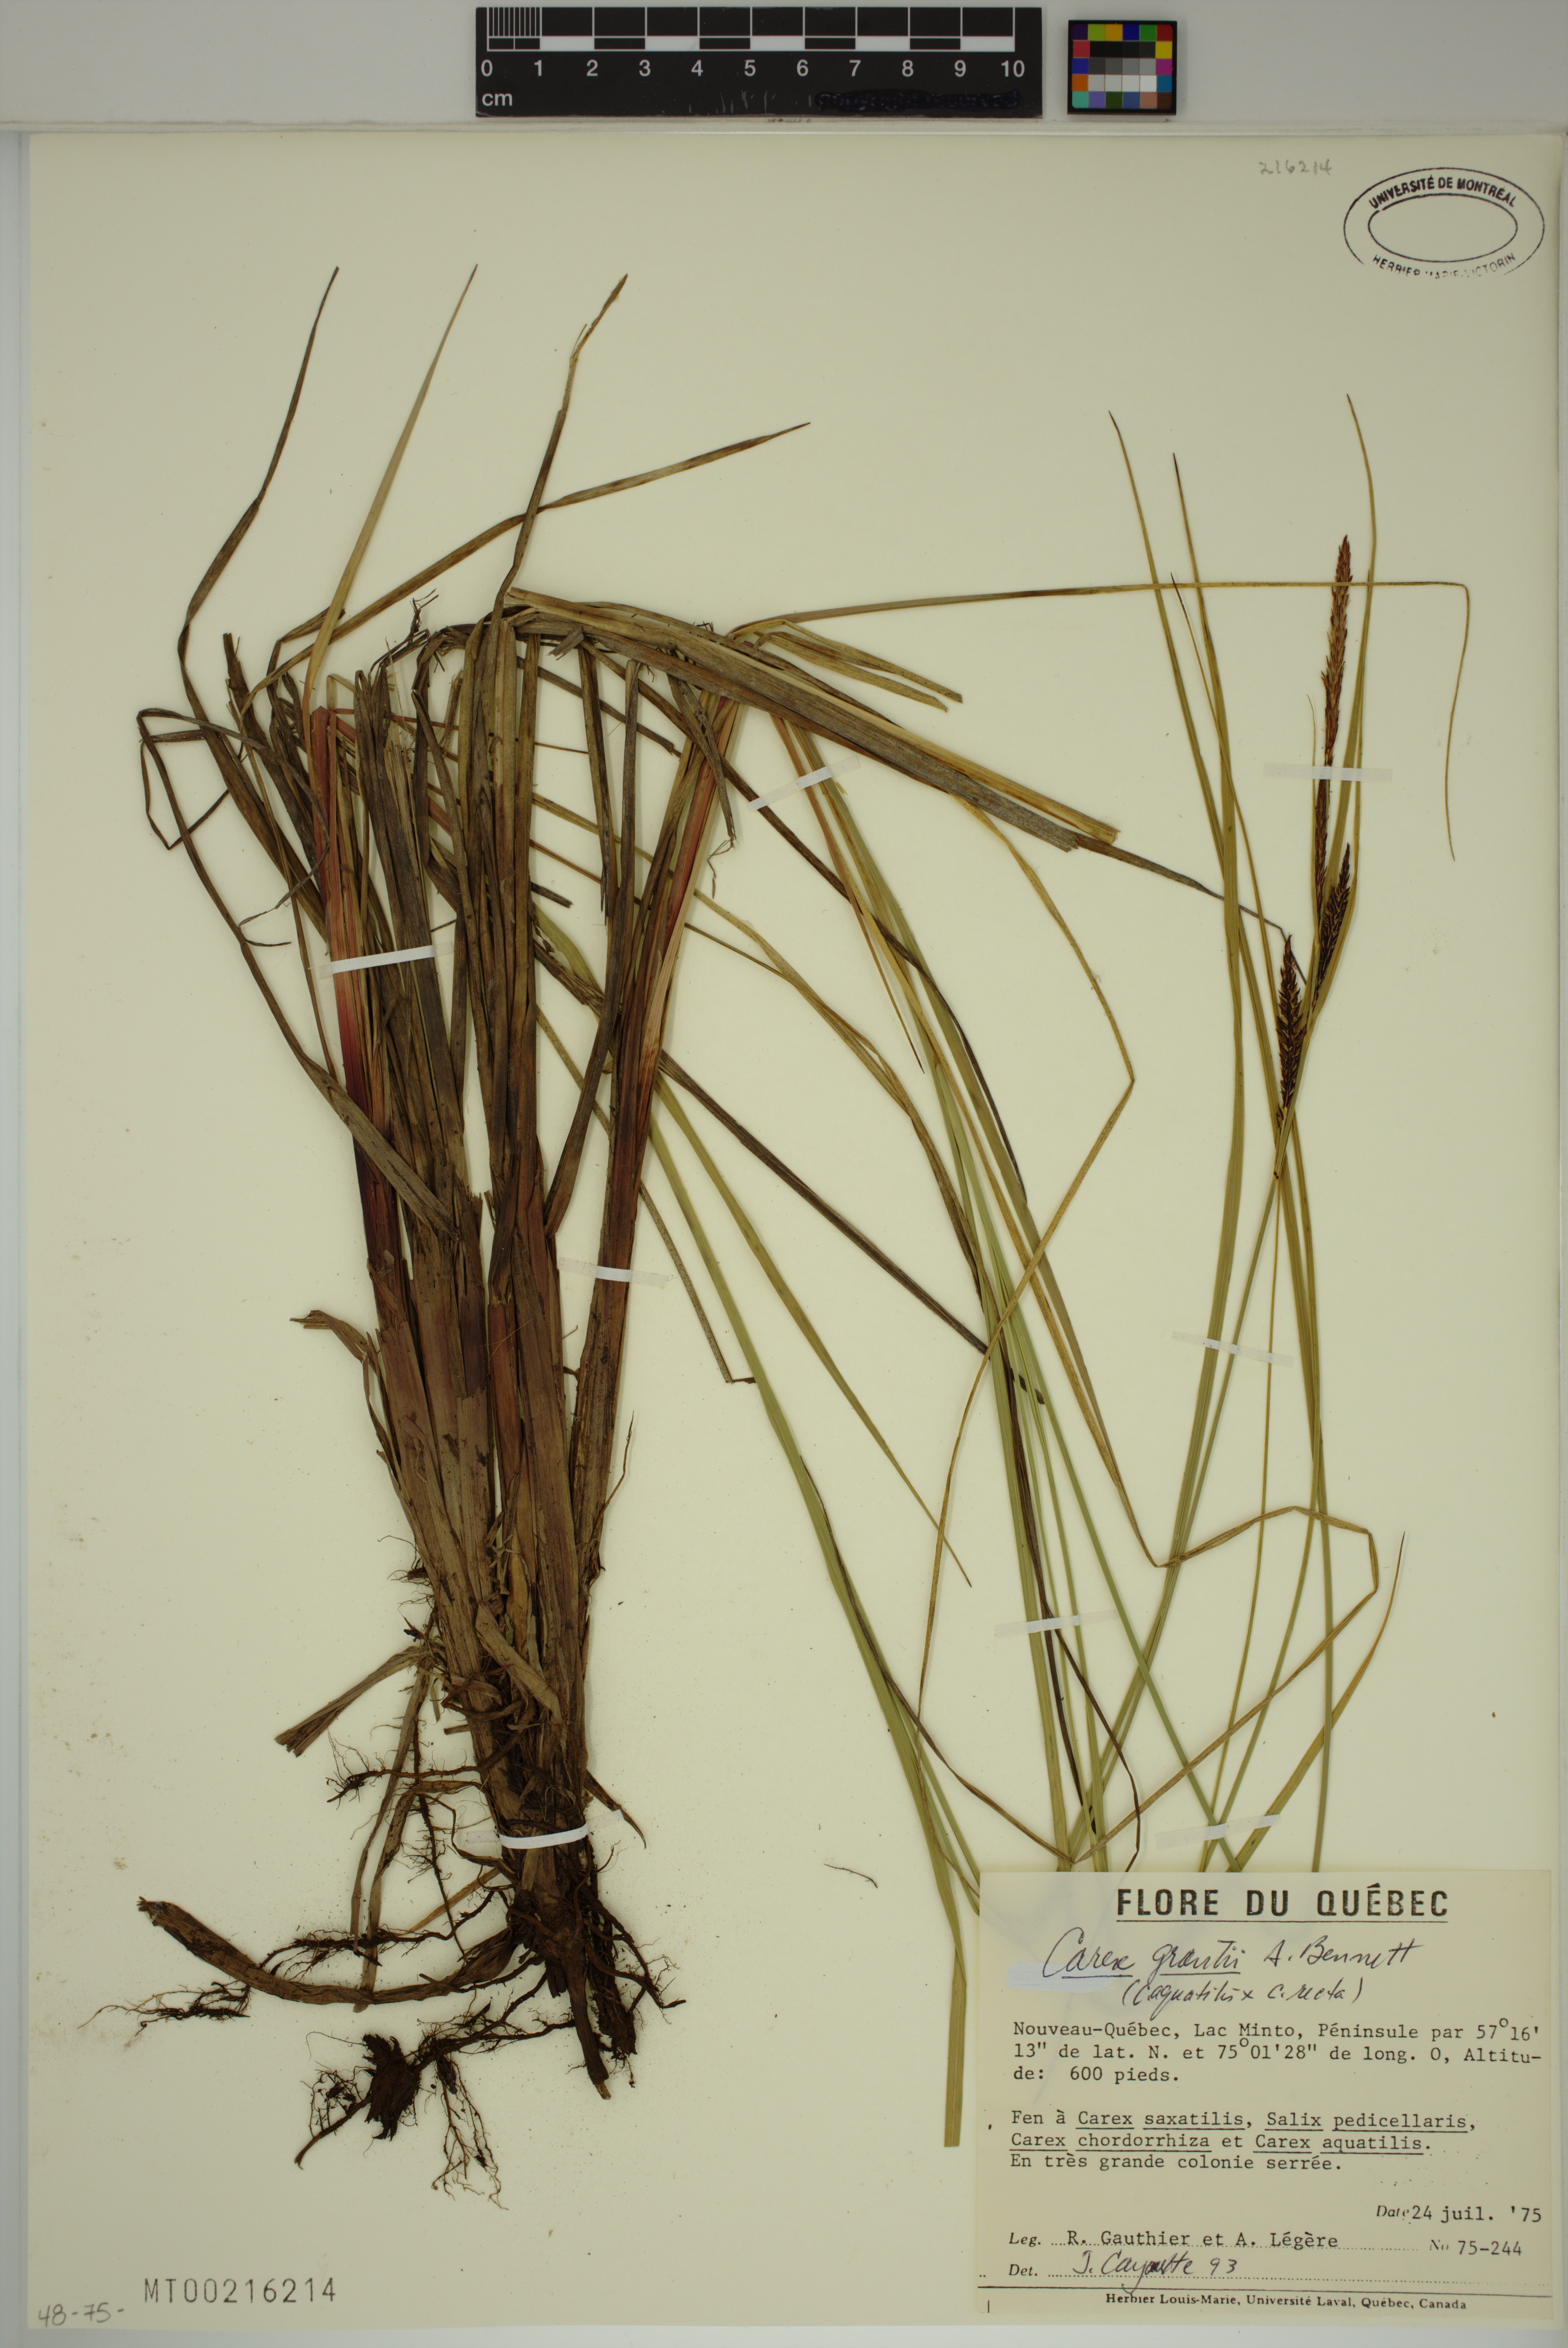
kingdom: Plantae
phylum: Tracheophyta
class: Liliopsida
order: Poales
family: Cyperaceae
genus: Carex
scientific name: Carex grantii
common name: Grant's sedge
